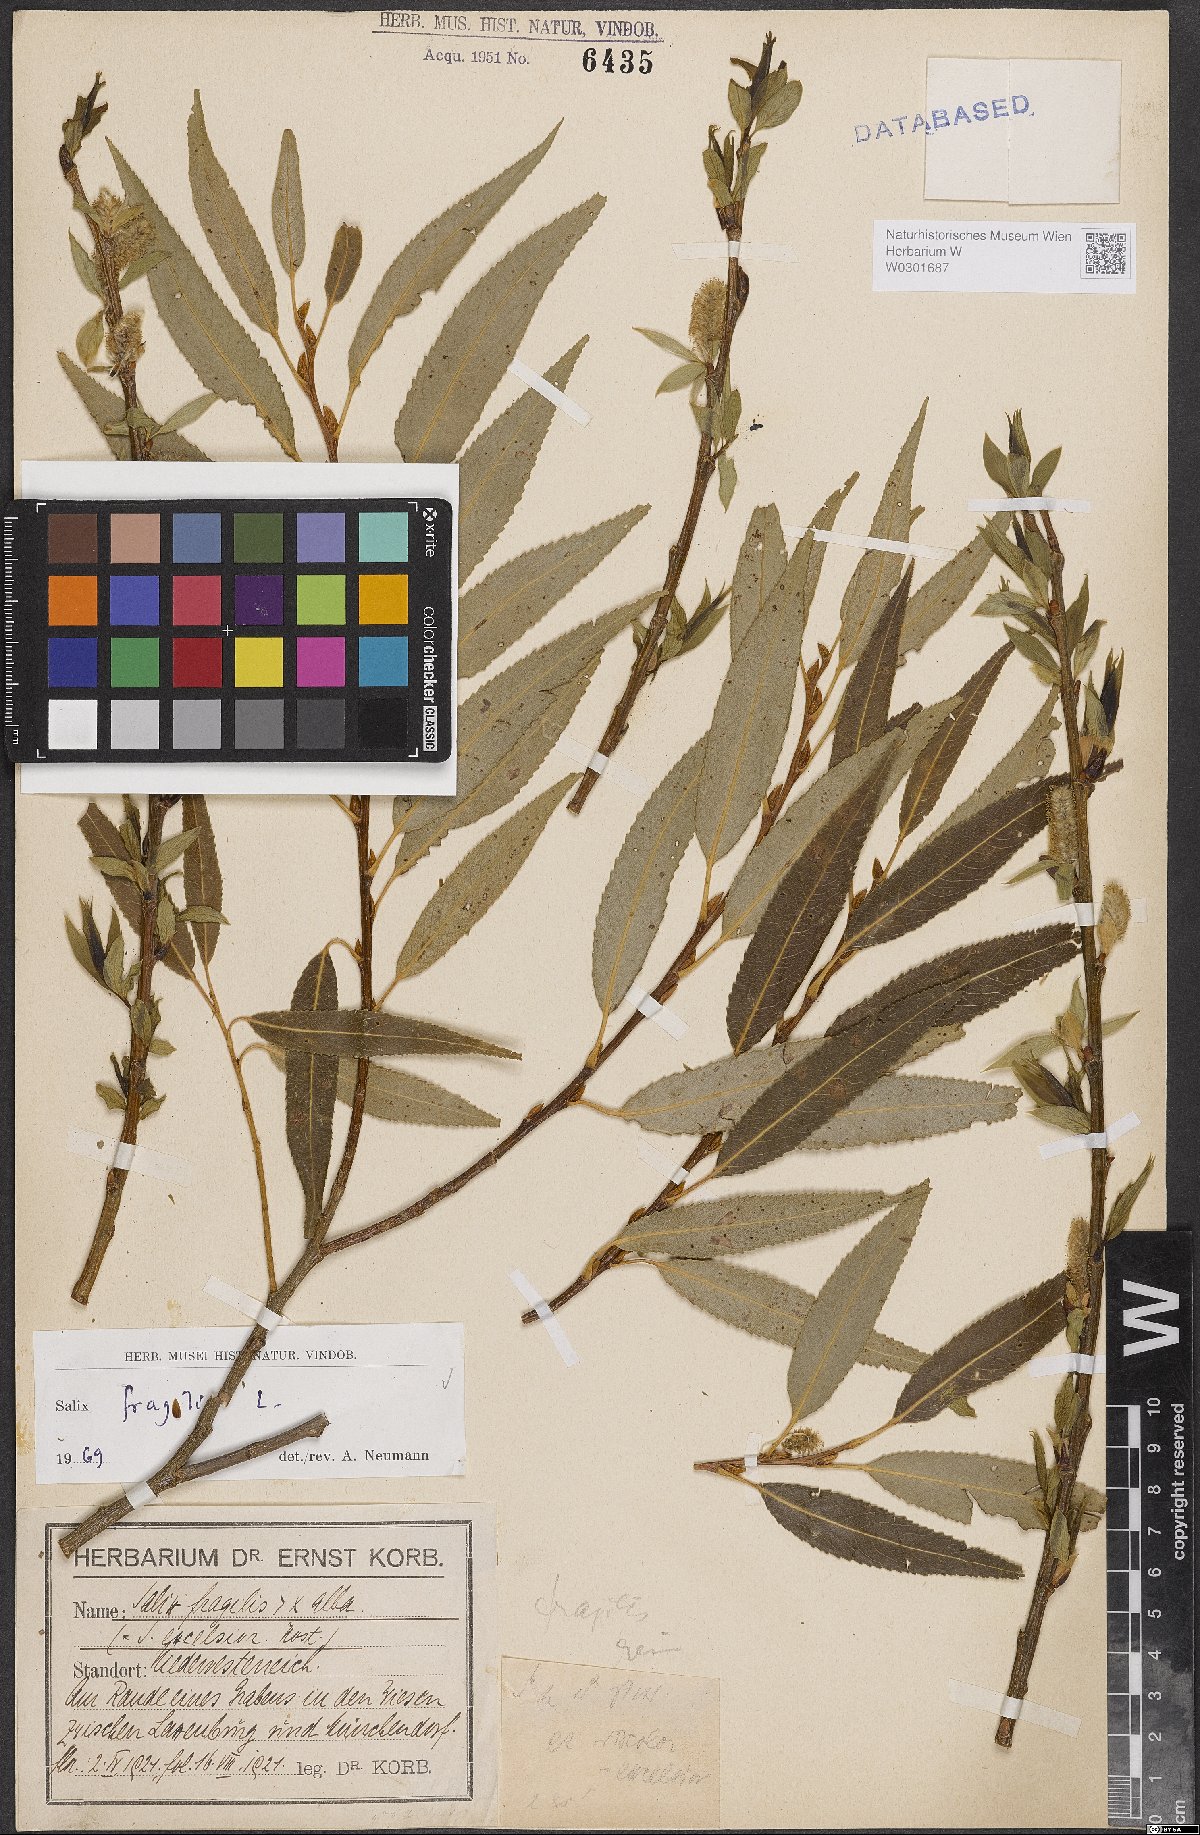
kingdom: Plantae
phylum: Tracheophyta
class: Magnoliopsida
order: Malpighiales
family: Salicaceae
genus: Salix
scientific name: Salix fragilis
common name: Crack willow
